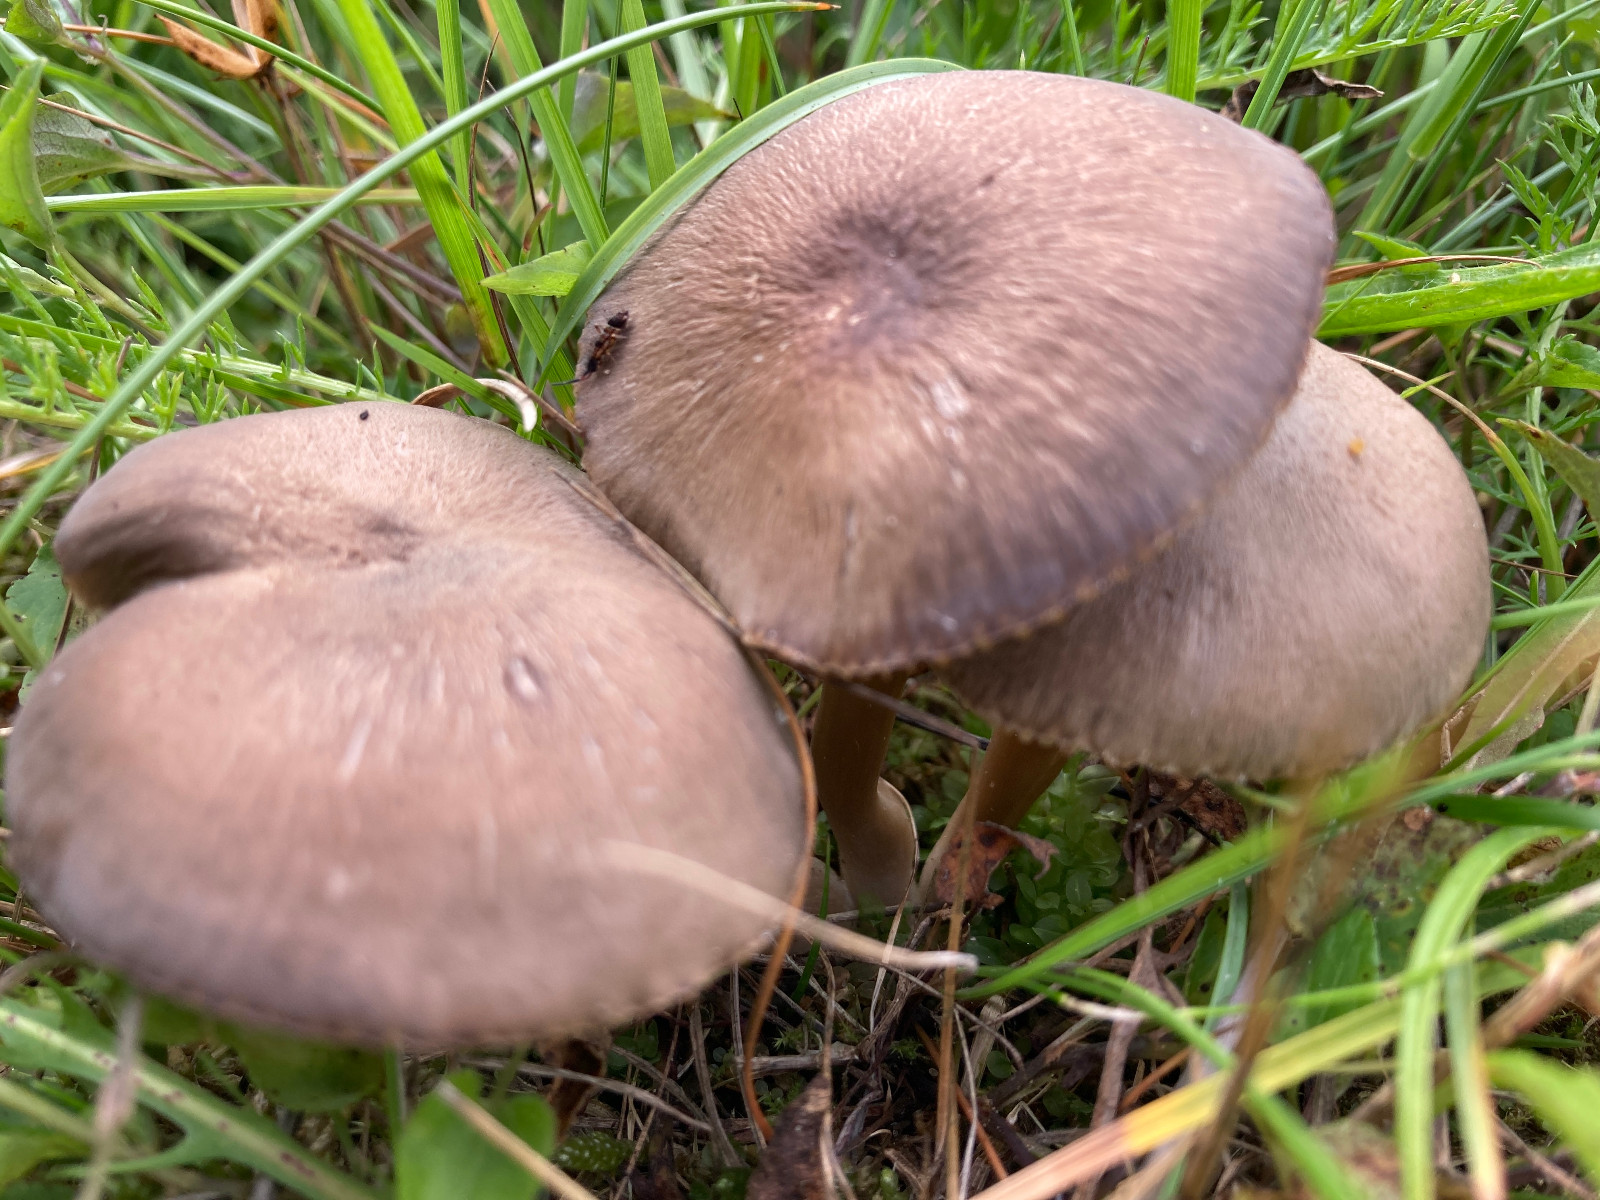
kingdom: Fungi
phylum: Basidiomycota
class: Agaricomycetes
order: Agaricales
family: Hygrophoraceae
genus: Neohygrocybe
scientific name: Neohygrocybe nitrata
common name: stinkende vokshat
